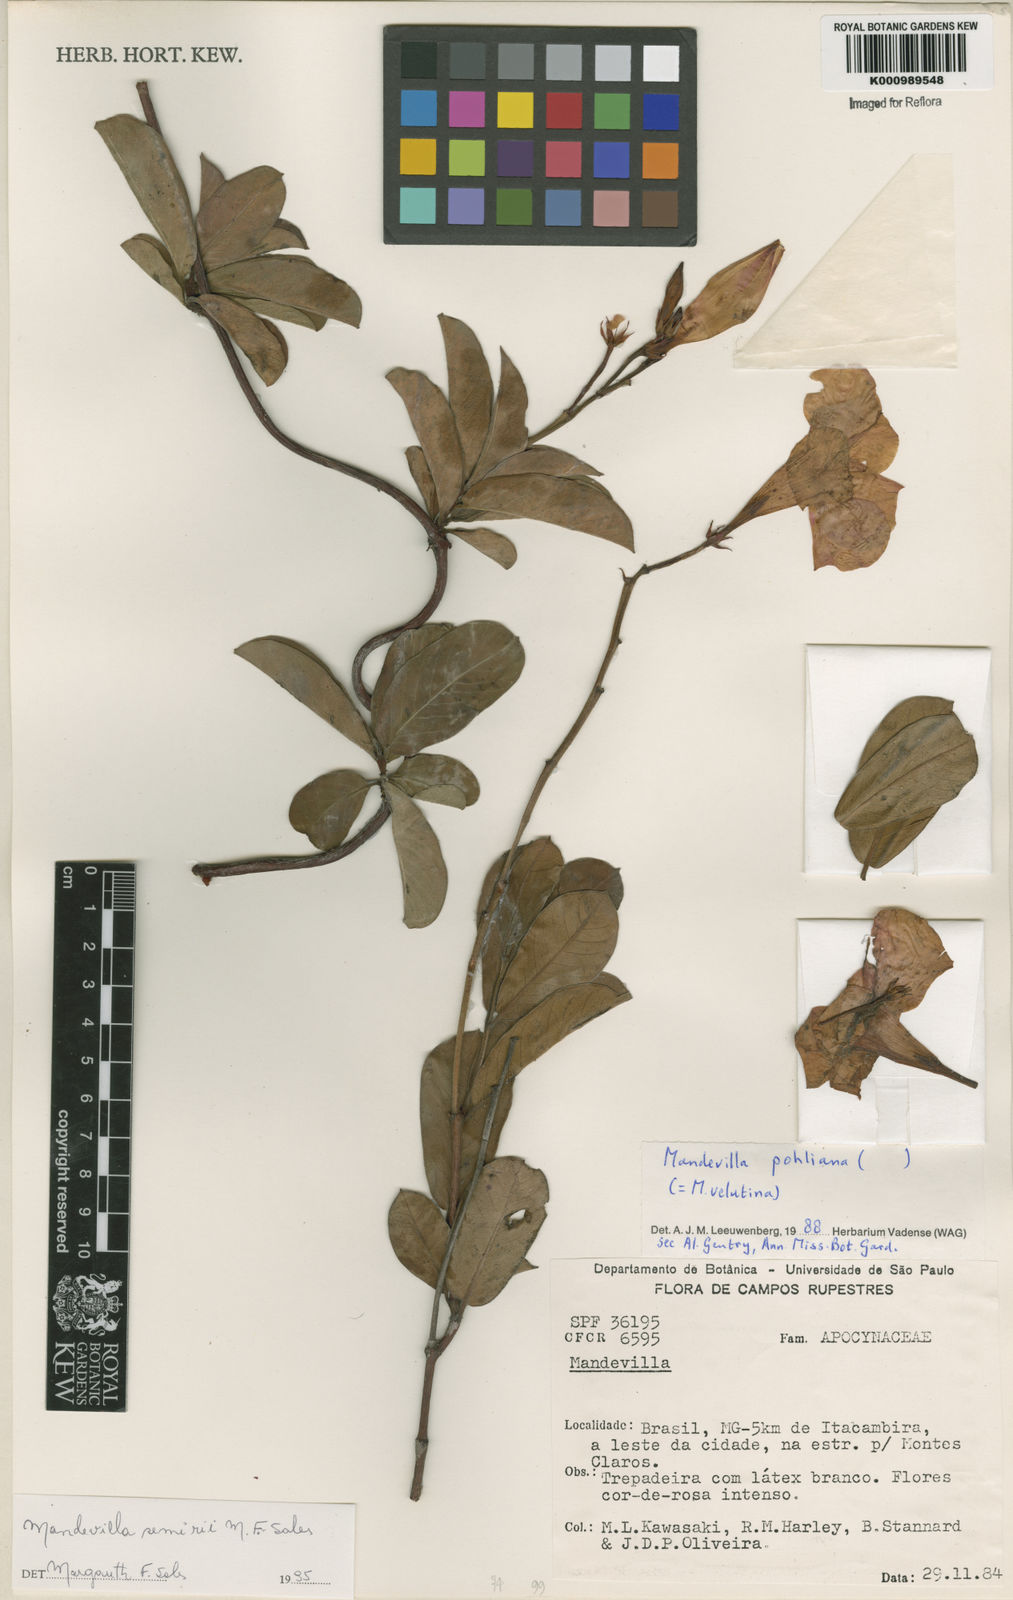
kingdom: Plantae
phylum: Tracheophyta
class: Magnoliopsida
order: Gentianales
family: Apocynaceae
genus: Mandevilla
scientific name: Mandevilla
